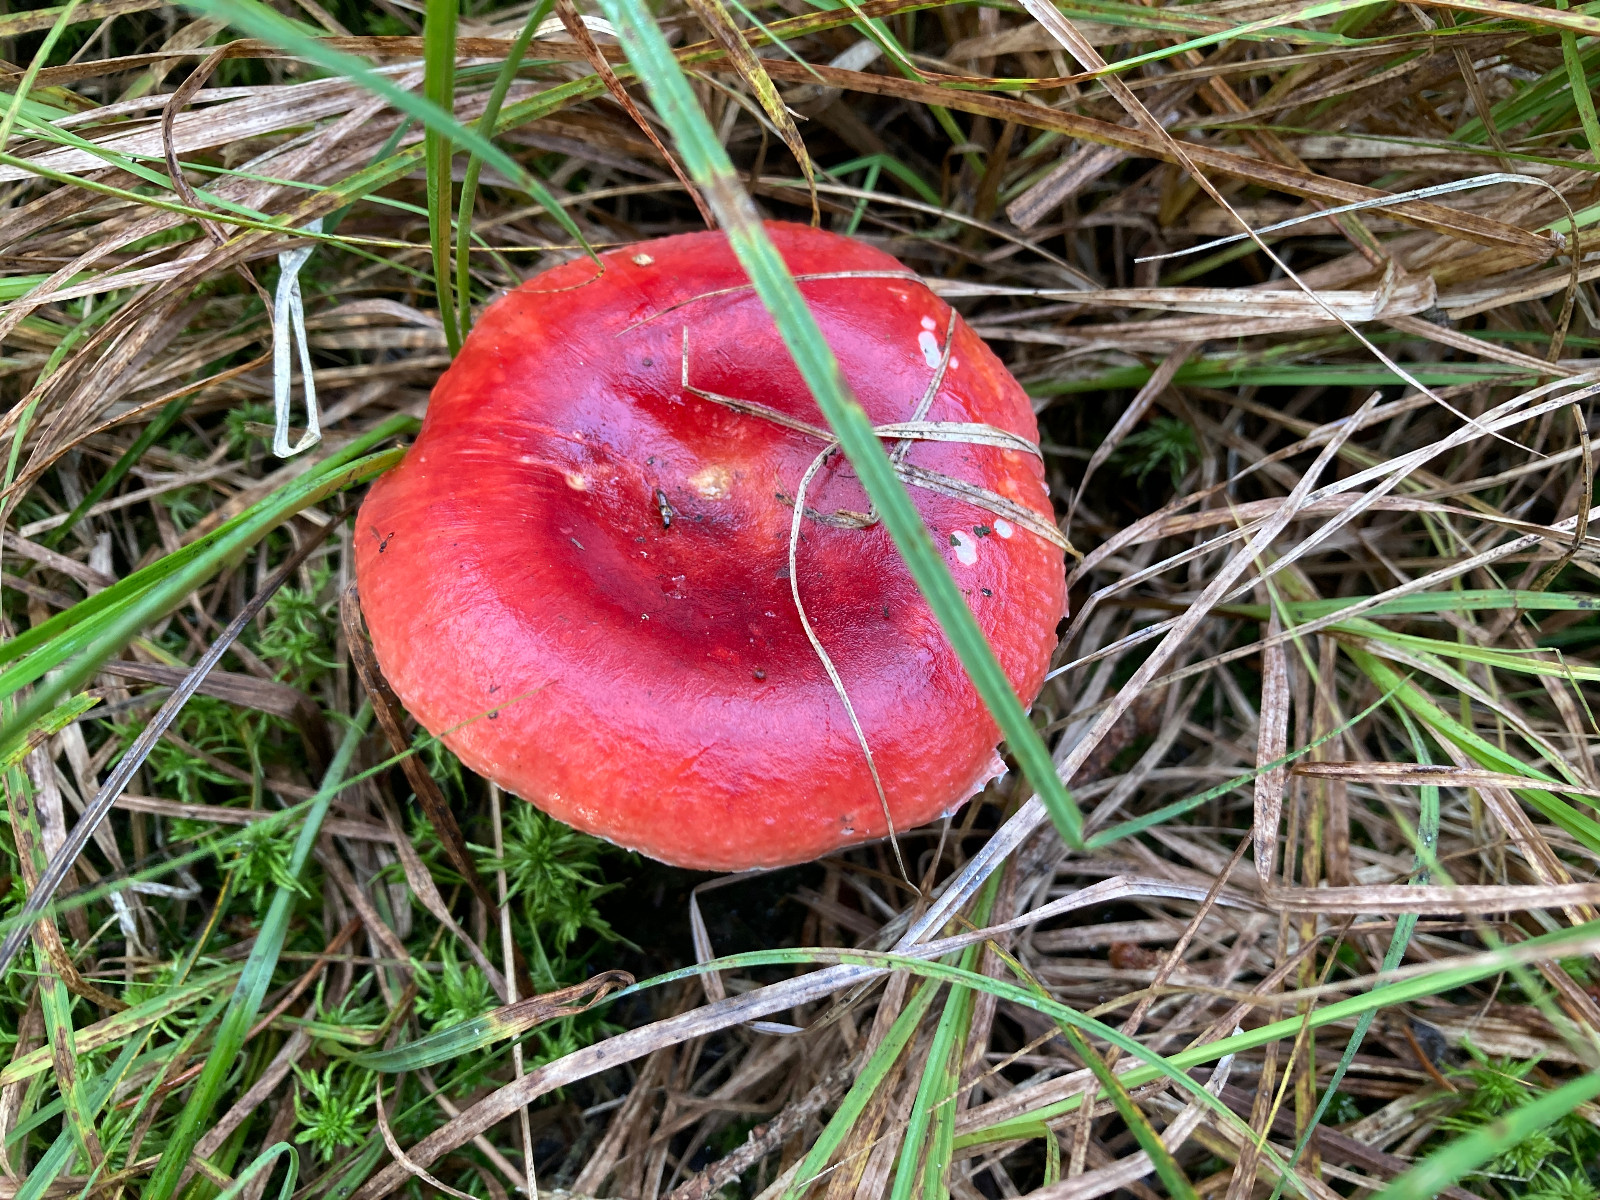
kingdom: Fungi
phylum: Basidiomycota
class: Agaricomycetes
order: Russulales
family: Russulaceae
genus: Russula
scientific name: Russula emetica
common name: stor gift-skørhat
